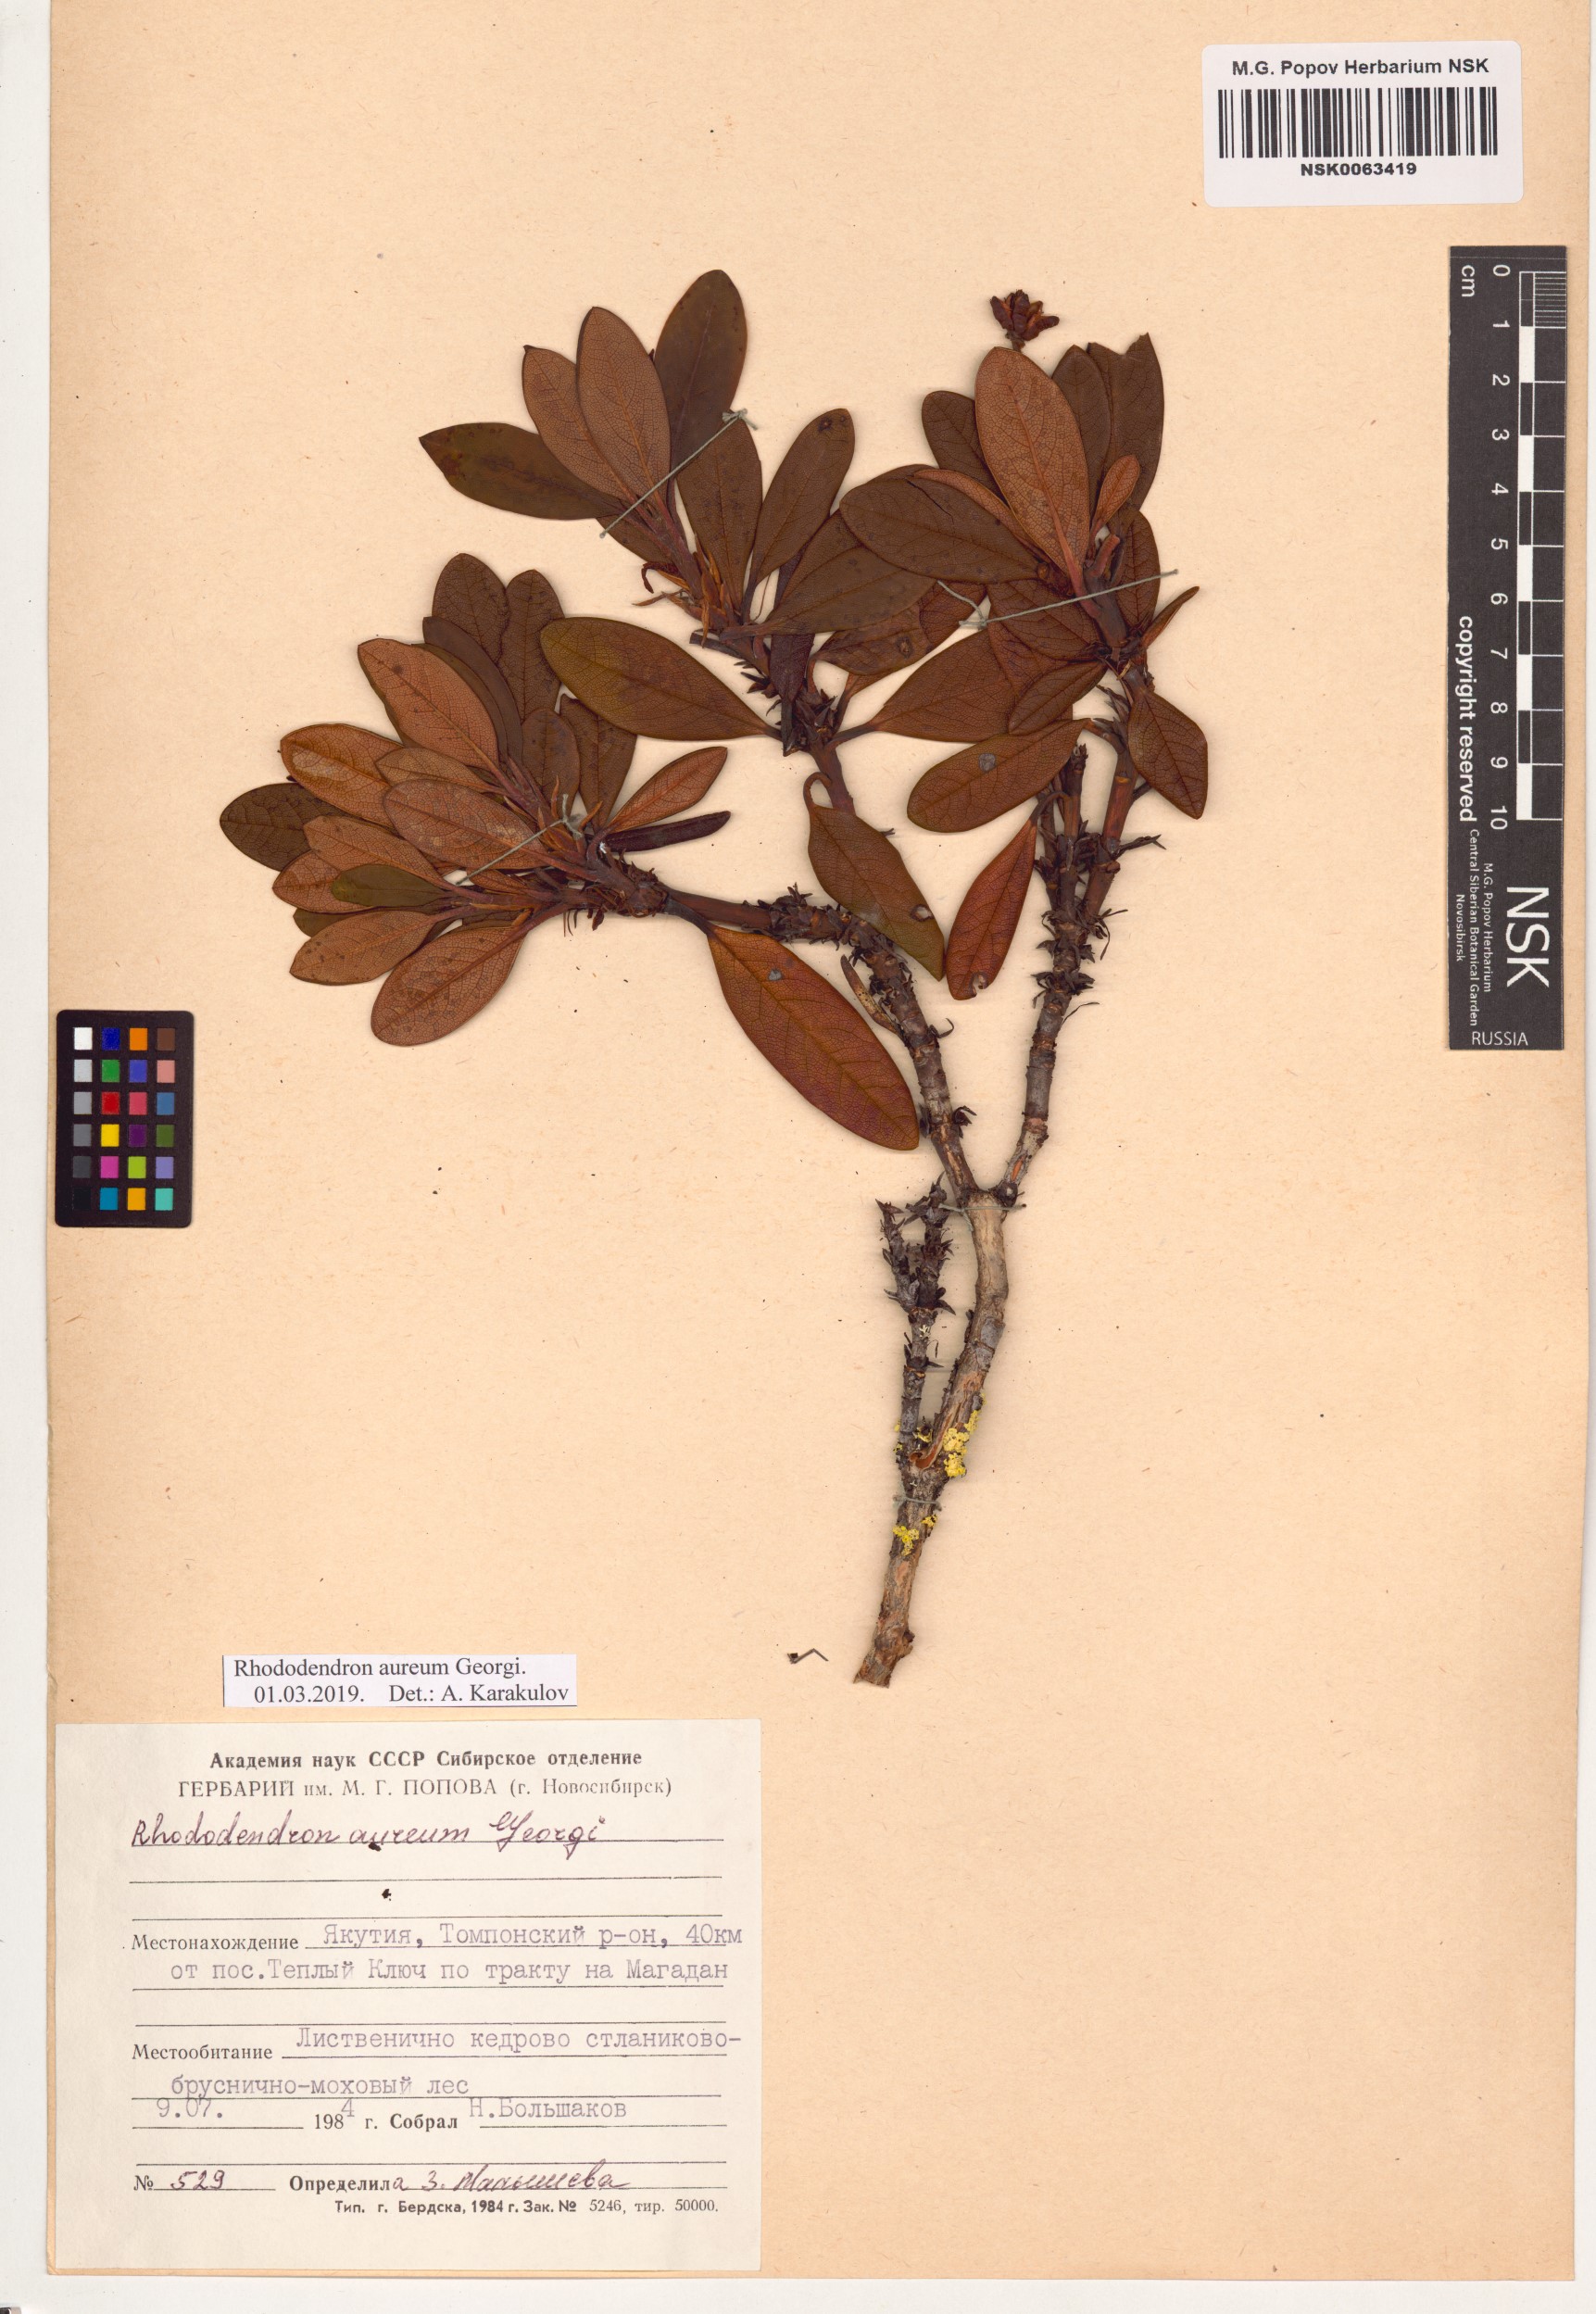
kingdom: Plantae
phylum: Tracheophyta
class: Magnoliopsida
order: Ericales
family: Ericaceae
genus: Rhododendron
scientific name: Rhododendron aureum
